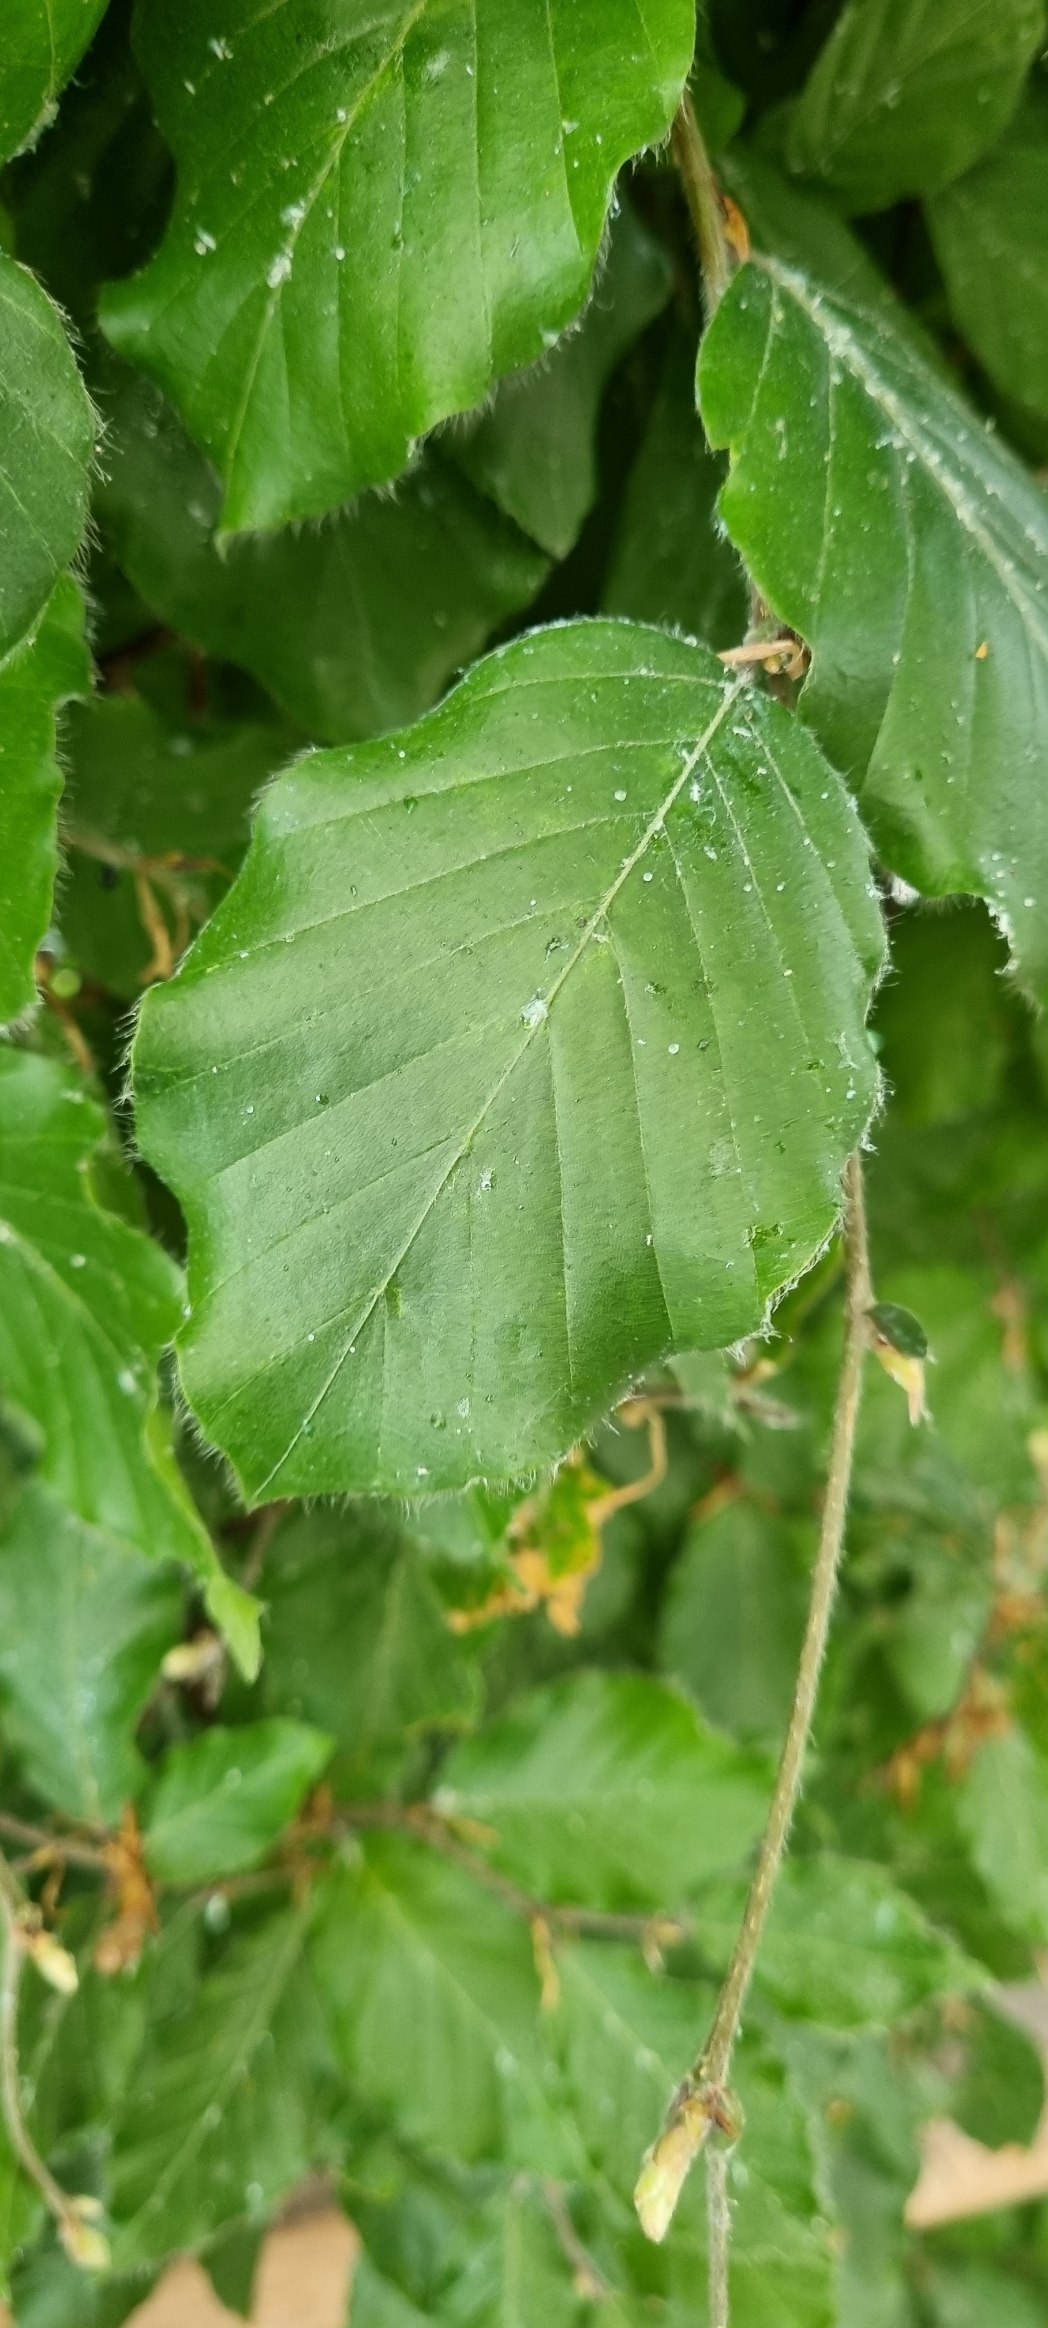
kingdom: Plantae
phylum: Tracheophyta
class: Magnoliopsida
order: Fagales
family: Fagaceae
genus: Fagus
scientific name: Fagus sylvatica
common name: Bøg
